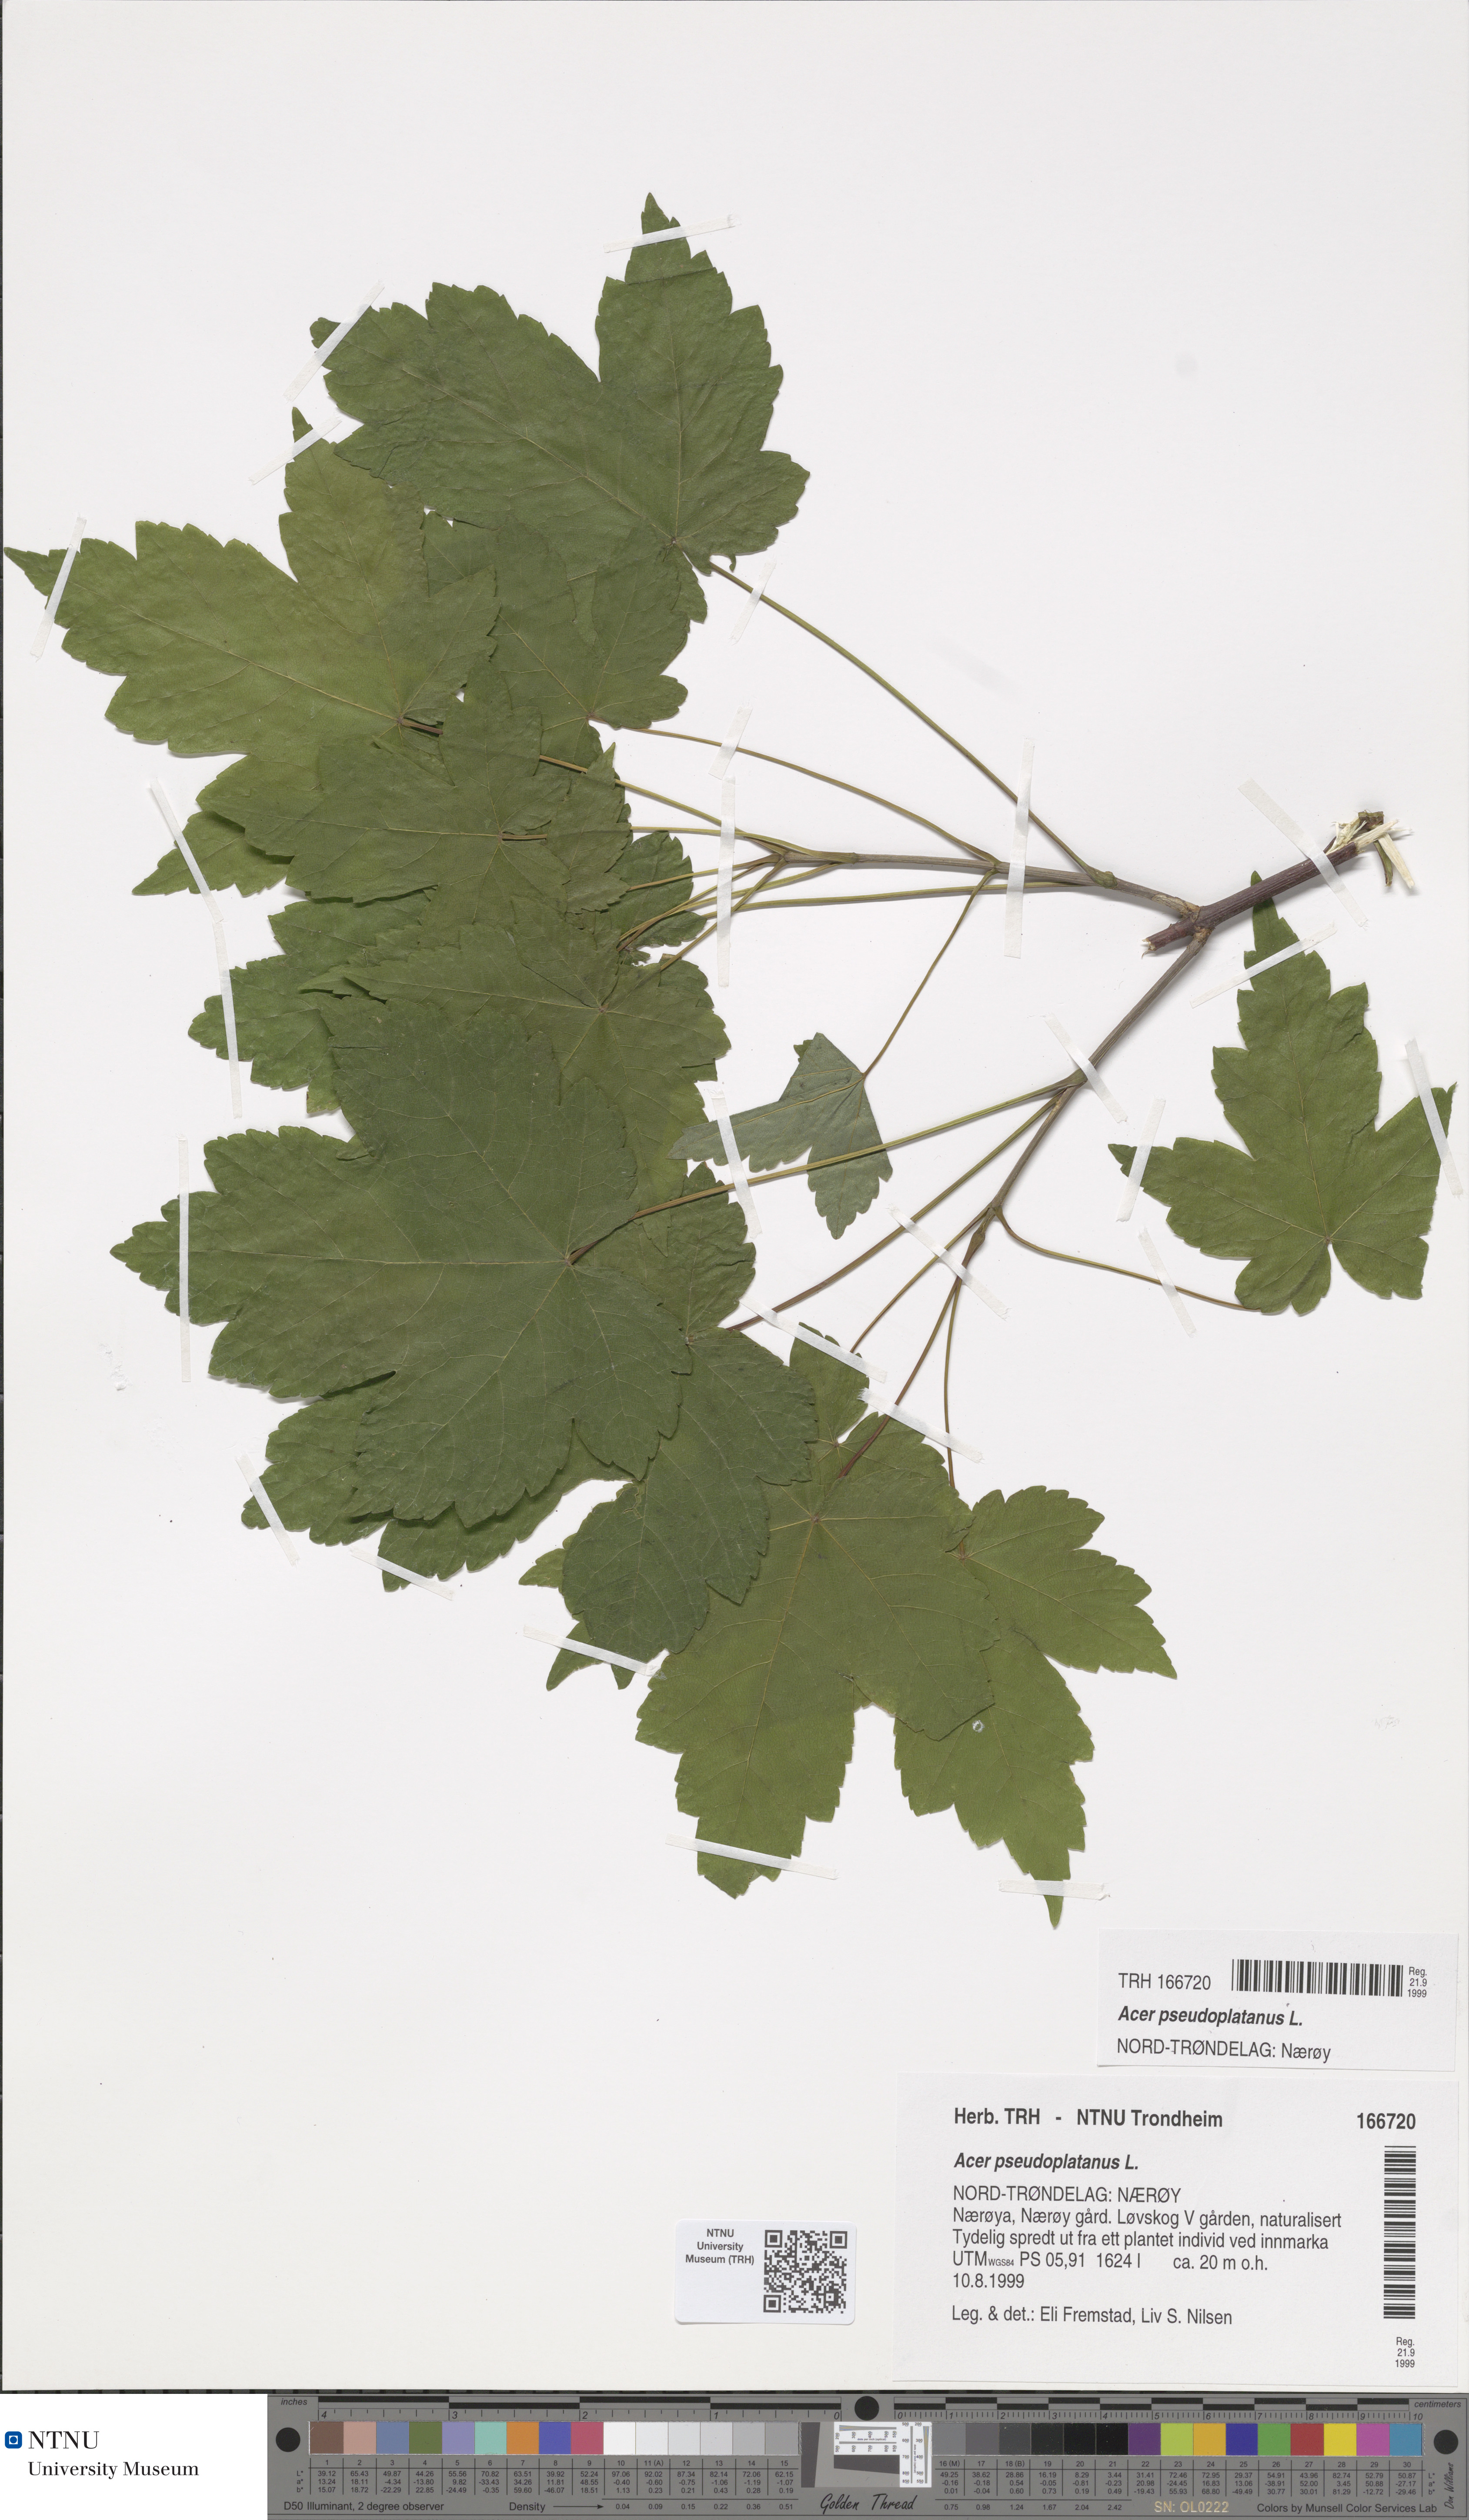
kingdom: Plantae
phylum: Tracheophyta
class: Magnoliopsida
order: Sapindales
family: Sapindaceae
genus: Acer
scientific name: Acer pseudoplatanus
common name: Sycamore
